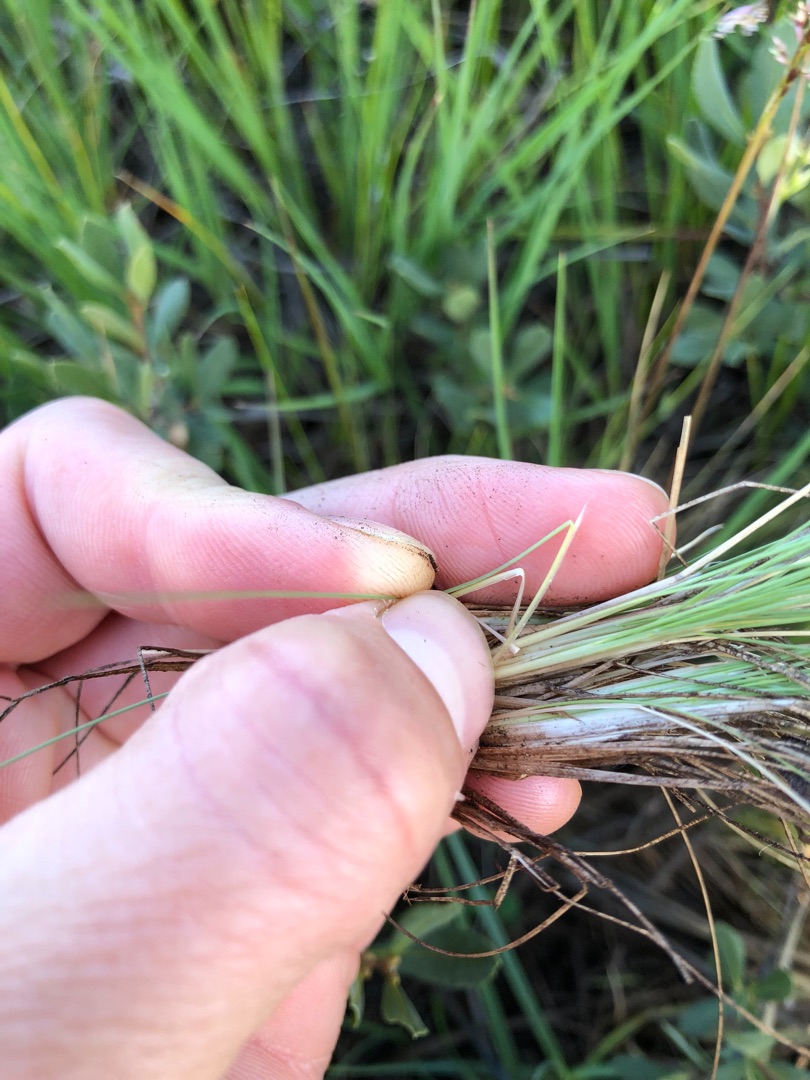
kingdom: Plantae
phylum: Tracheophyta
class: Liliopsida
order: Poales
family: Poaceae
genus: Deschampsia
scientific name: Deschampsia setacea
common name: Fin bunke
